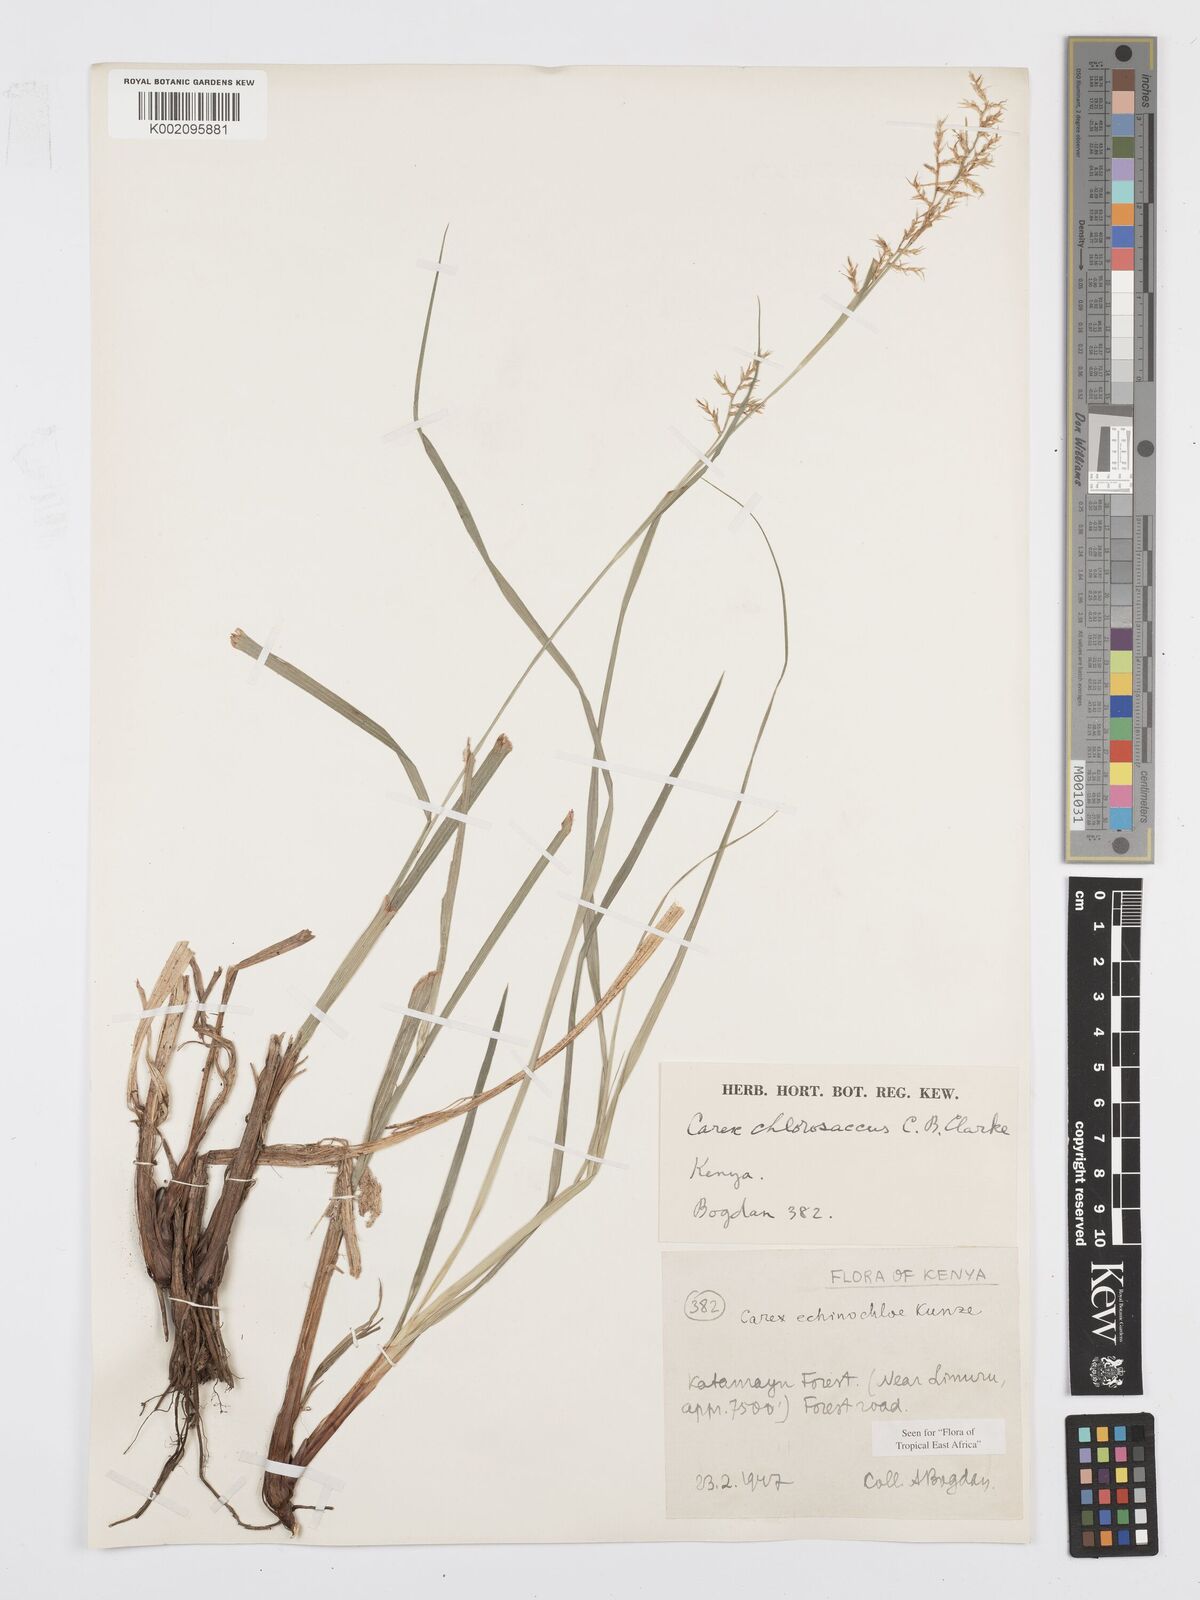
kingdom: Plantae
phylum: Tracheophyta
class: Liliopsida
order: Poales
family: Cyperaceae
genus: Carex
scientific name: Carex chlorosaccus
